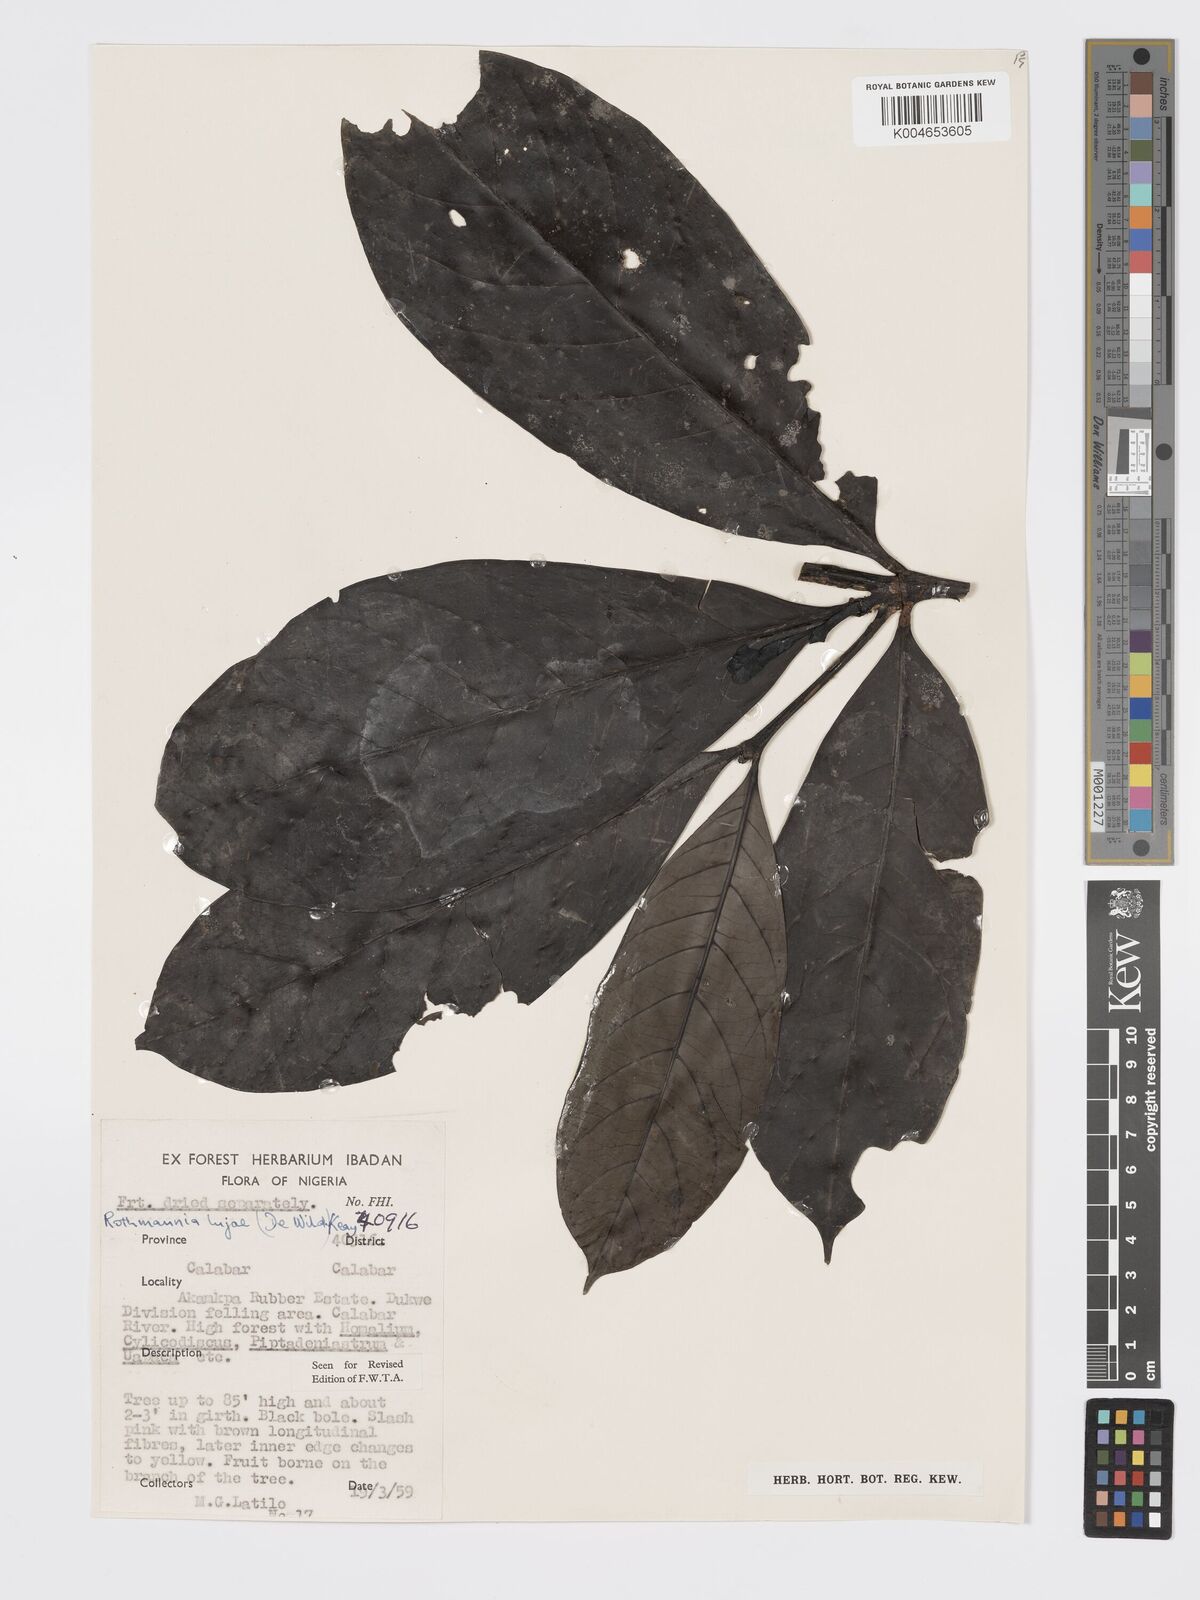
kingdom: Plantae
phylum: Tracheophyta
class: Magnoliopsida
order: Gentianales
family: Rubiaceae
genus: Rothmannia
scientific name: Rothmannia lujae
